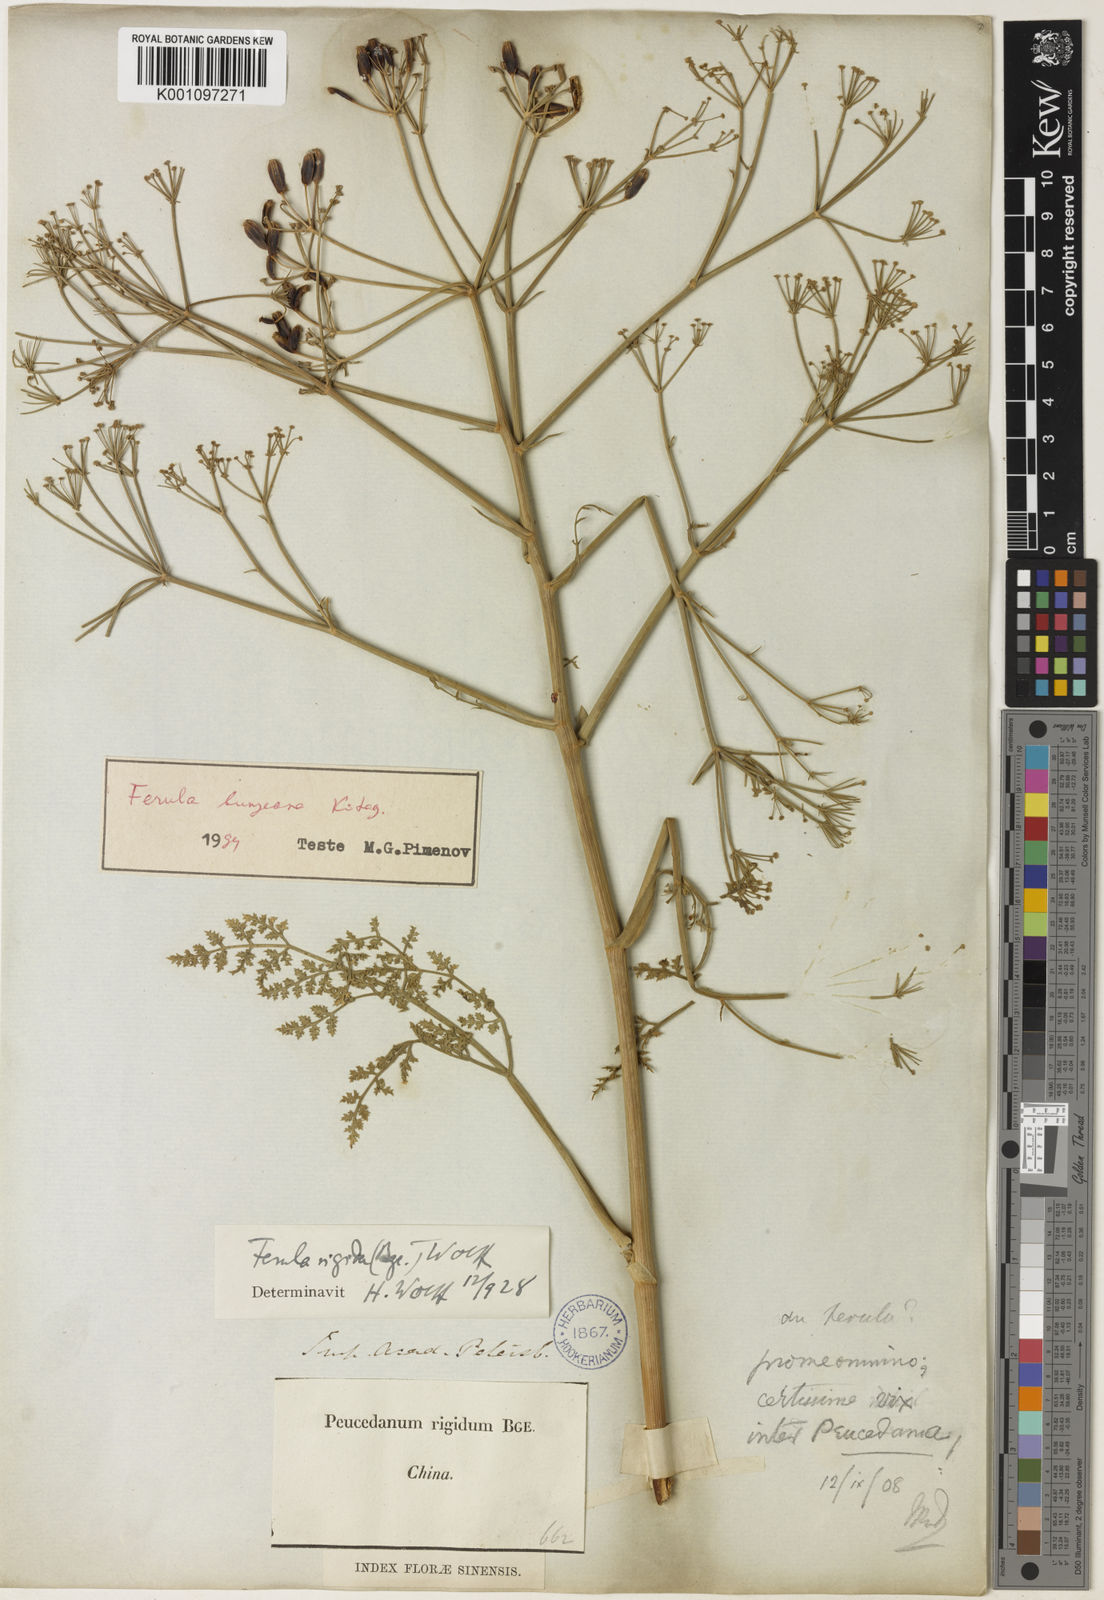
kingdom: Plantae
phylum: Tracheophyta
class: Magnoliopsida
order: Apiales
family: Apiaceae
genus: Ferula
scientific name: Ferula bungeana
